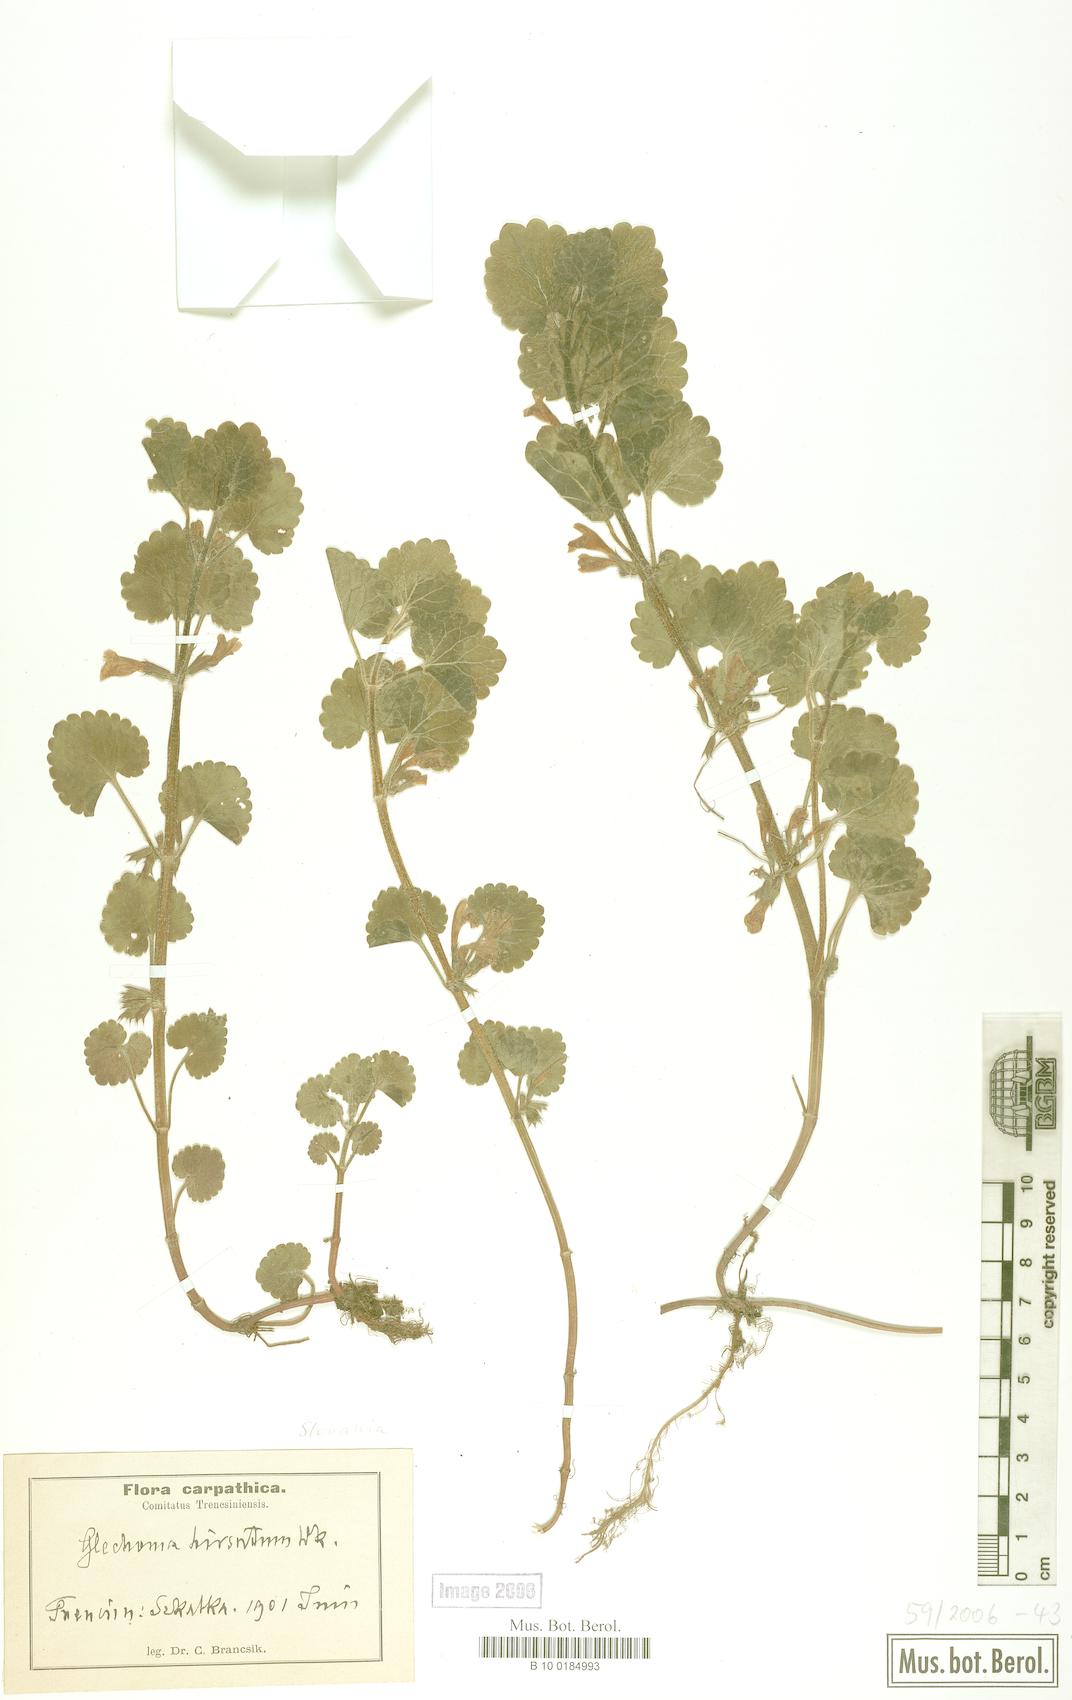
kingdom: Plantae
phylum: Tracheophyta
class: Magnoliopsida
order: Lamiales
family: Lamiaceae
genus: Glechoma
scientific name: Glechoma hirsuta
